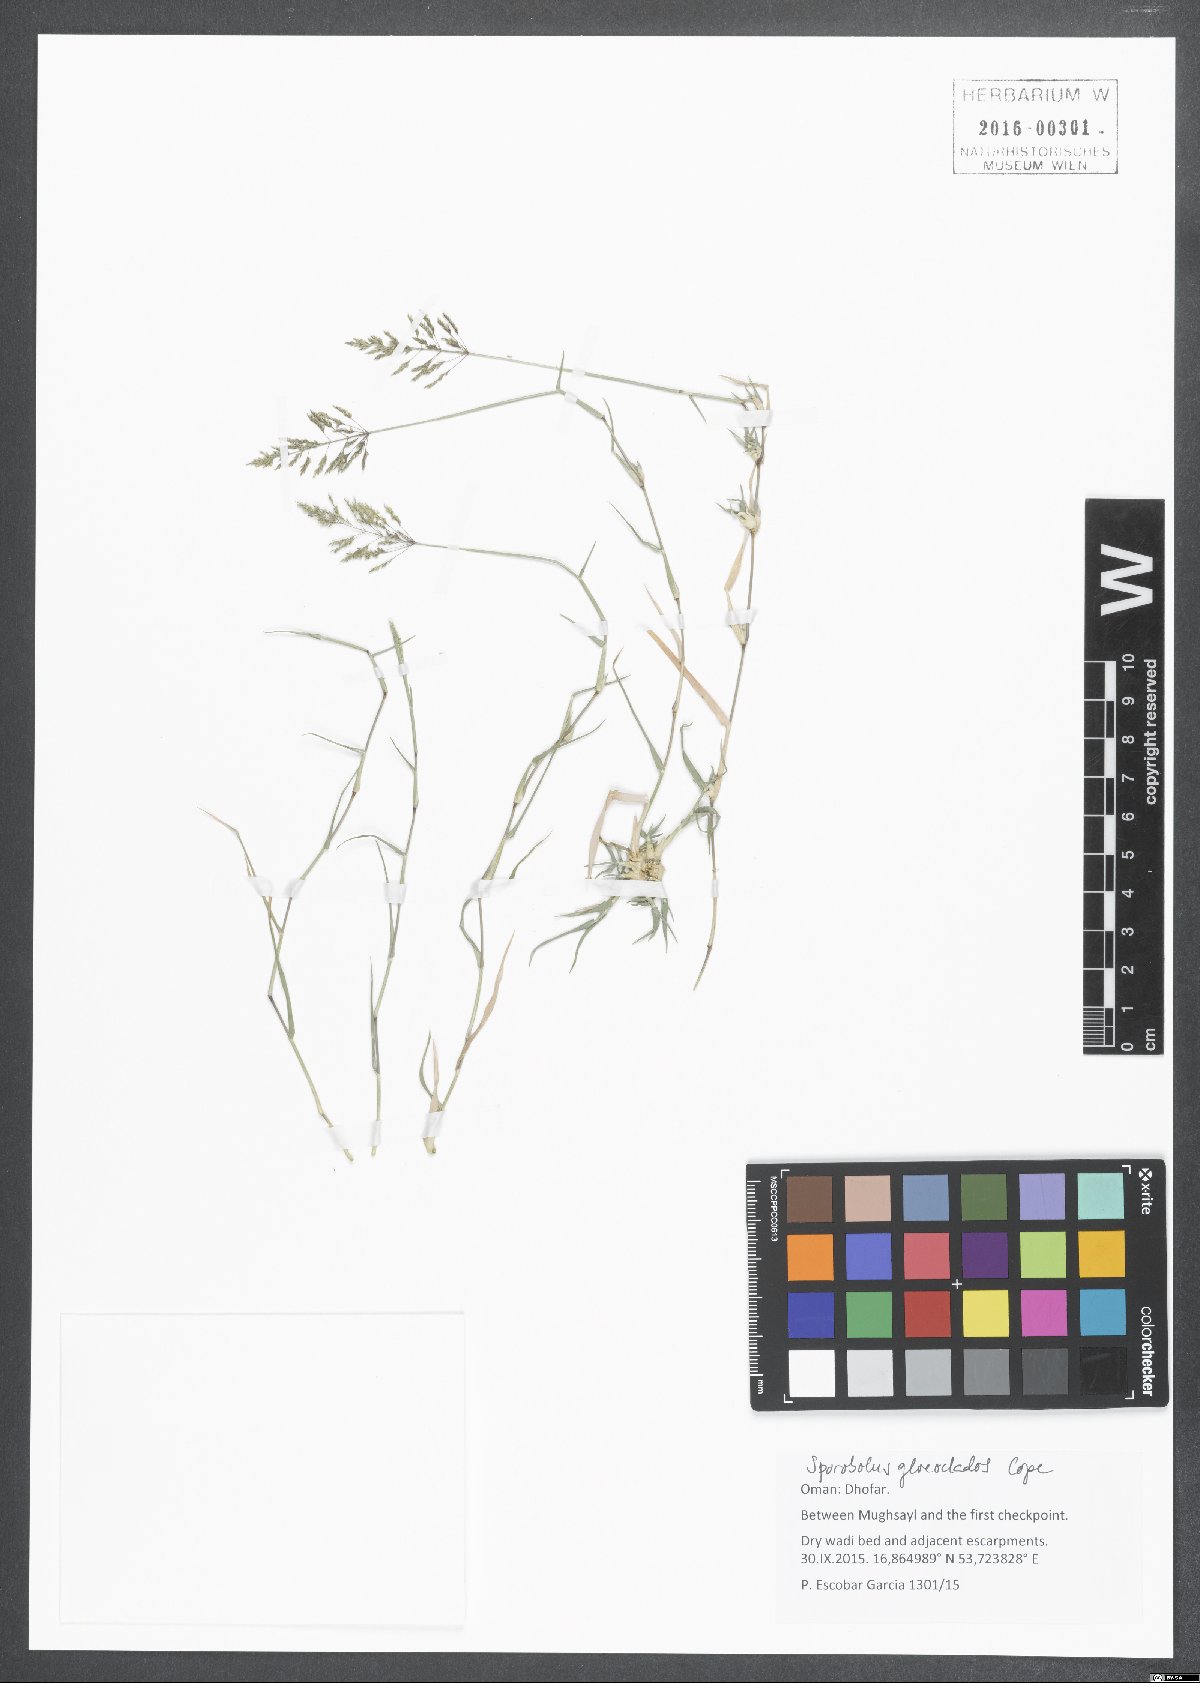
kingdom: Plantae
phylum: Tracheophyta
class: Liliopsida
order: Poales
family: Poaceae
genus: Sporobolus
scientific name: Sporobolus gloeoclados
